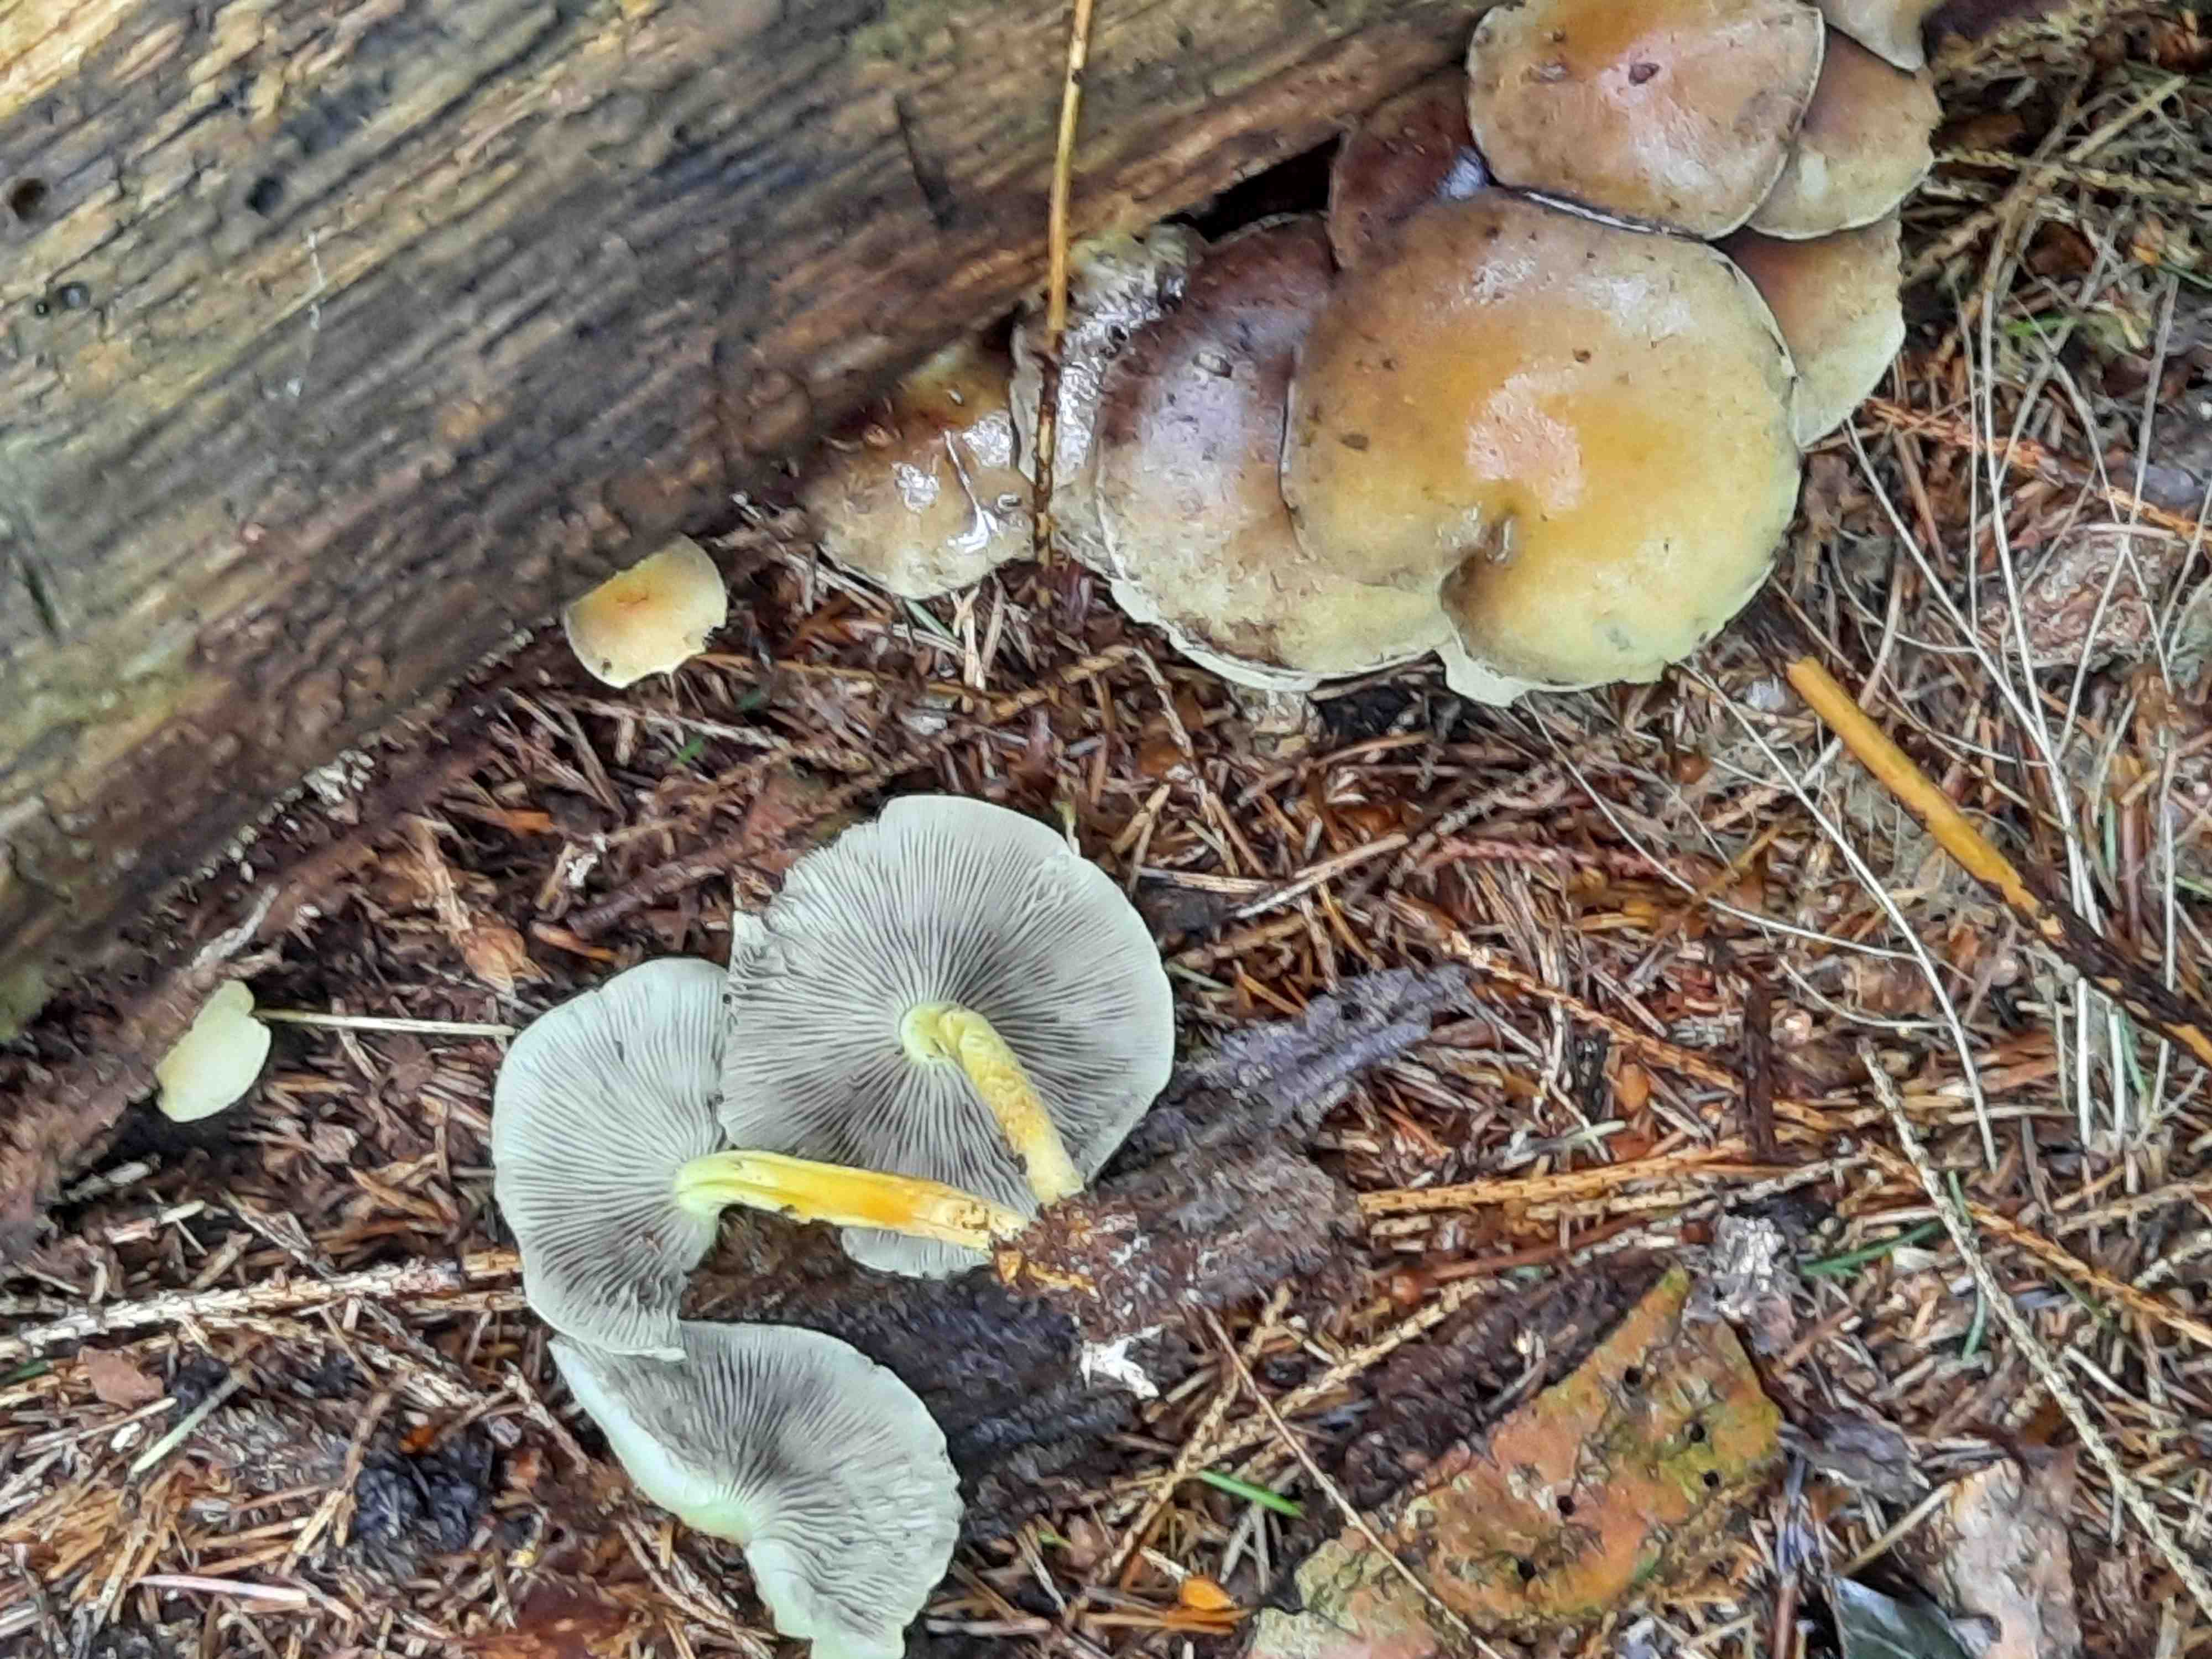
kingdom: Fungi
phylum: Basidiomycota
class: Agaricomycetes
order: Agaricales
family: Strophariaceae
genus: Hypholoma
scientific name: Hypholoma fasciculare
